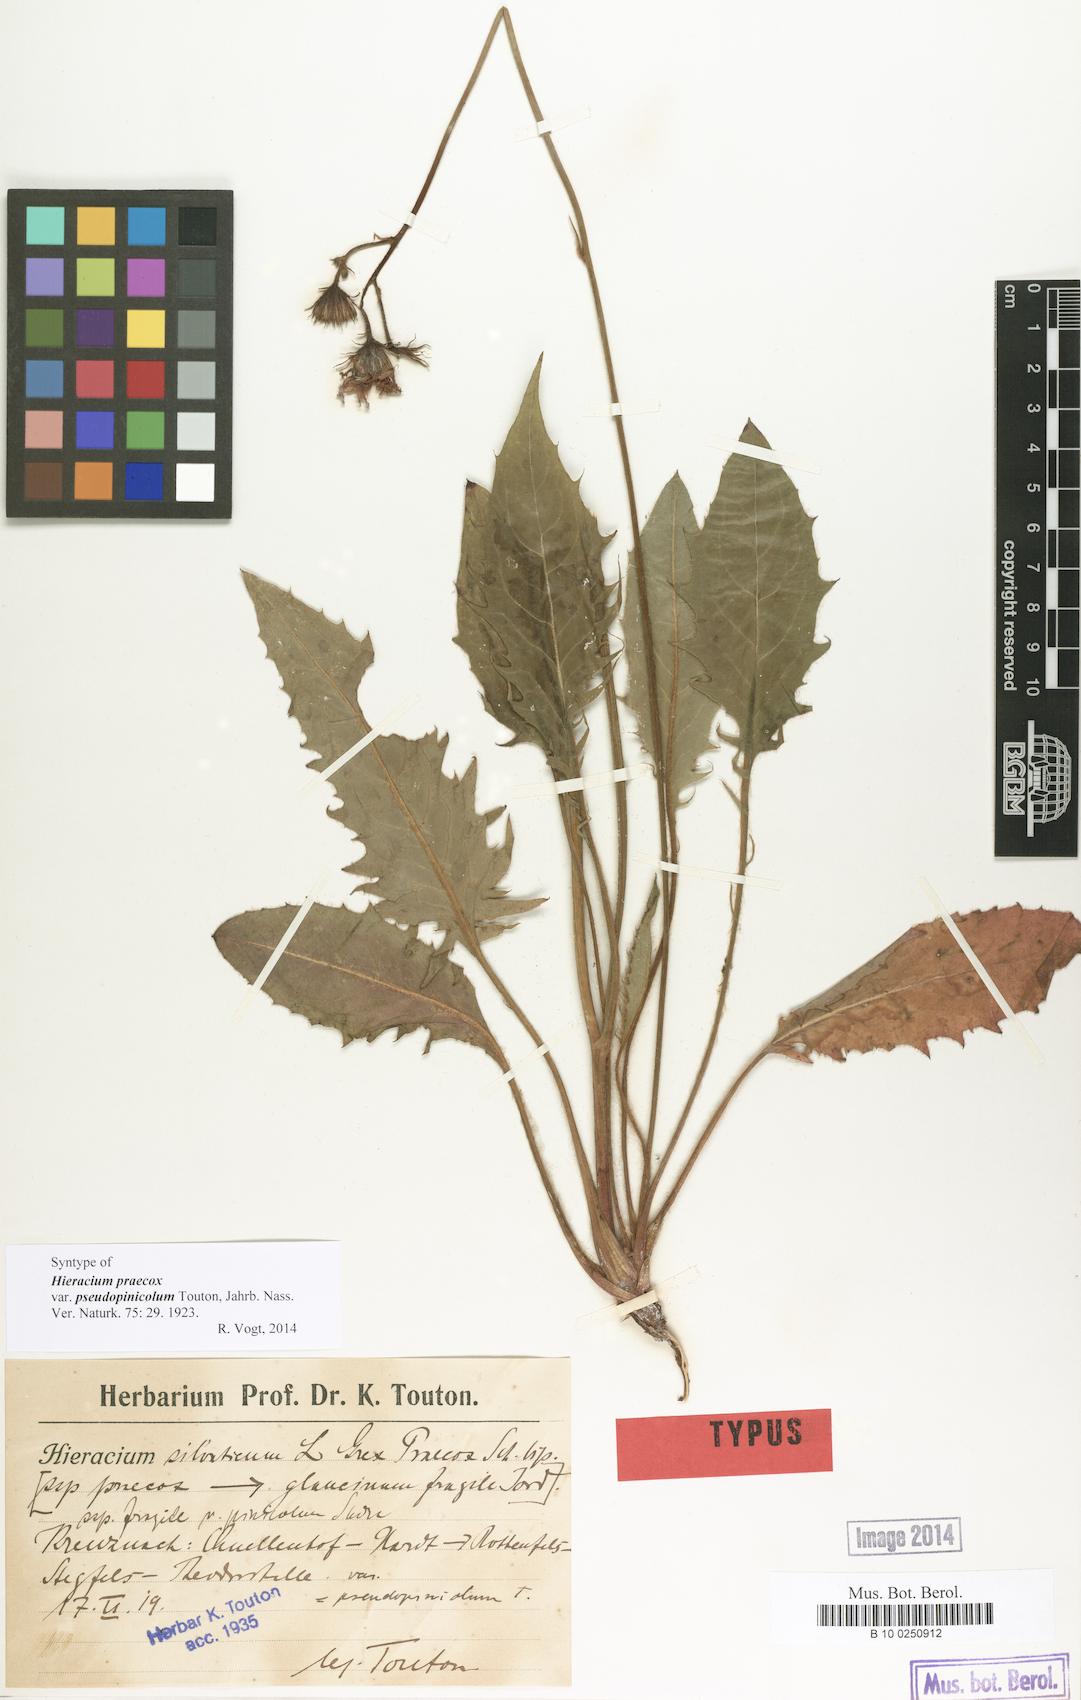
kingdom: Plantae
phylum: Tracheophyta
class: Magnoliopsida
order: Asterales
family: Asteraceae
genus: Hieracium
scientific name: Hieracium praecox
